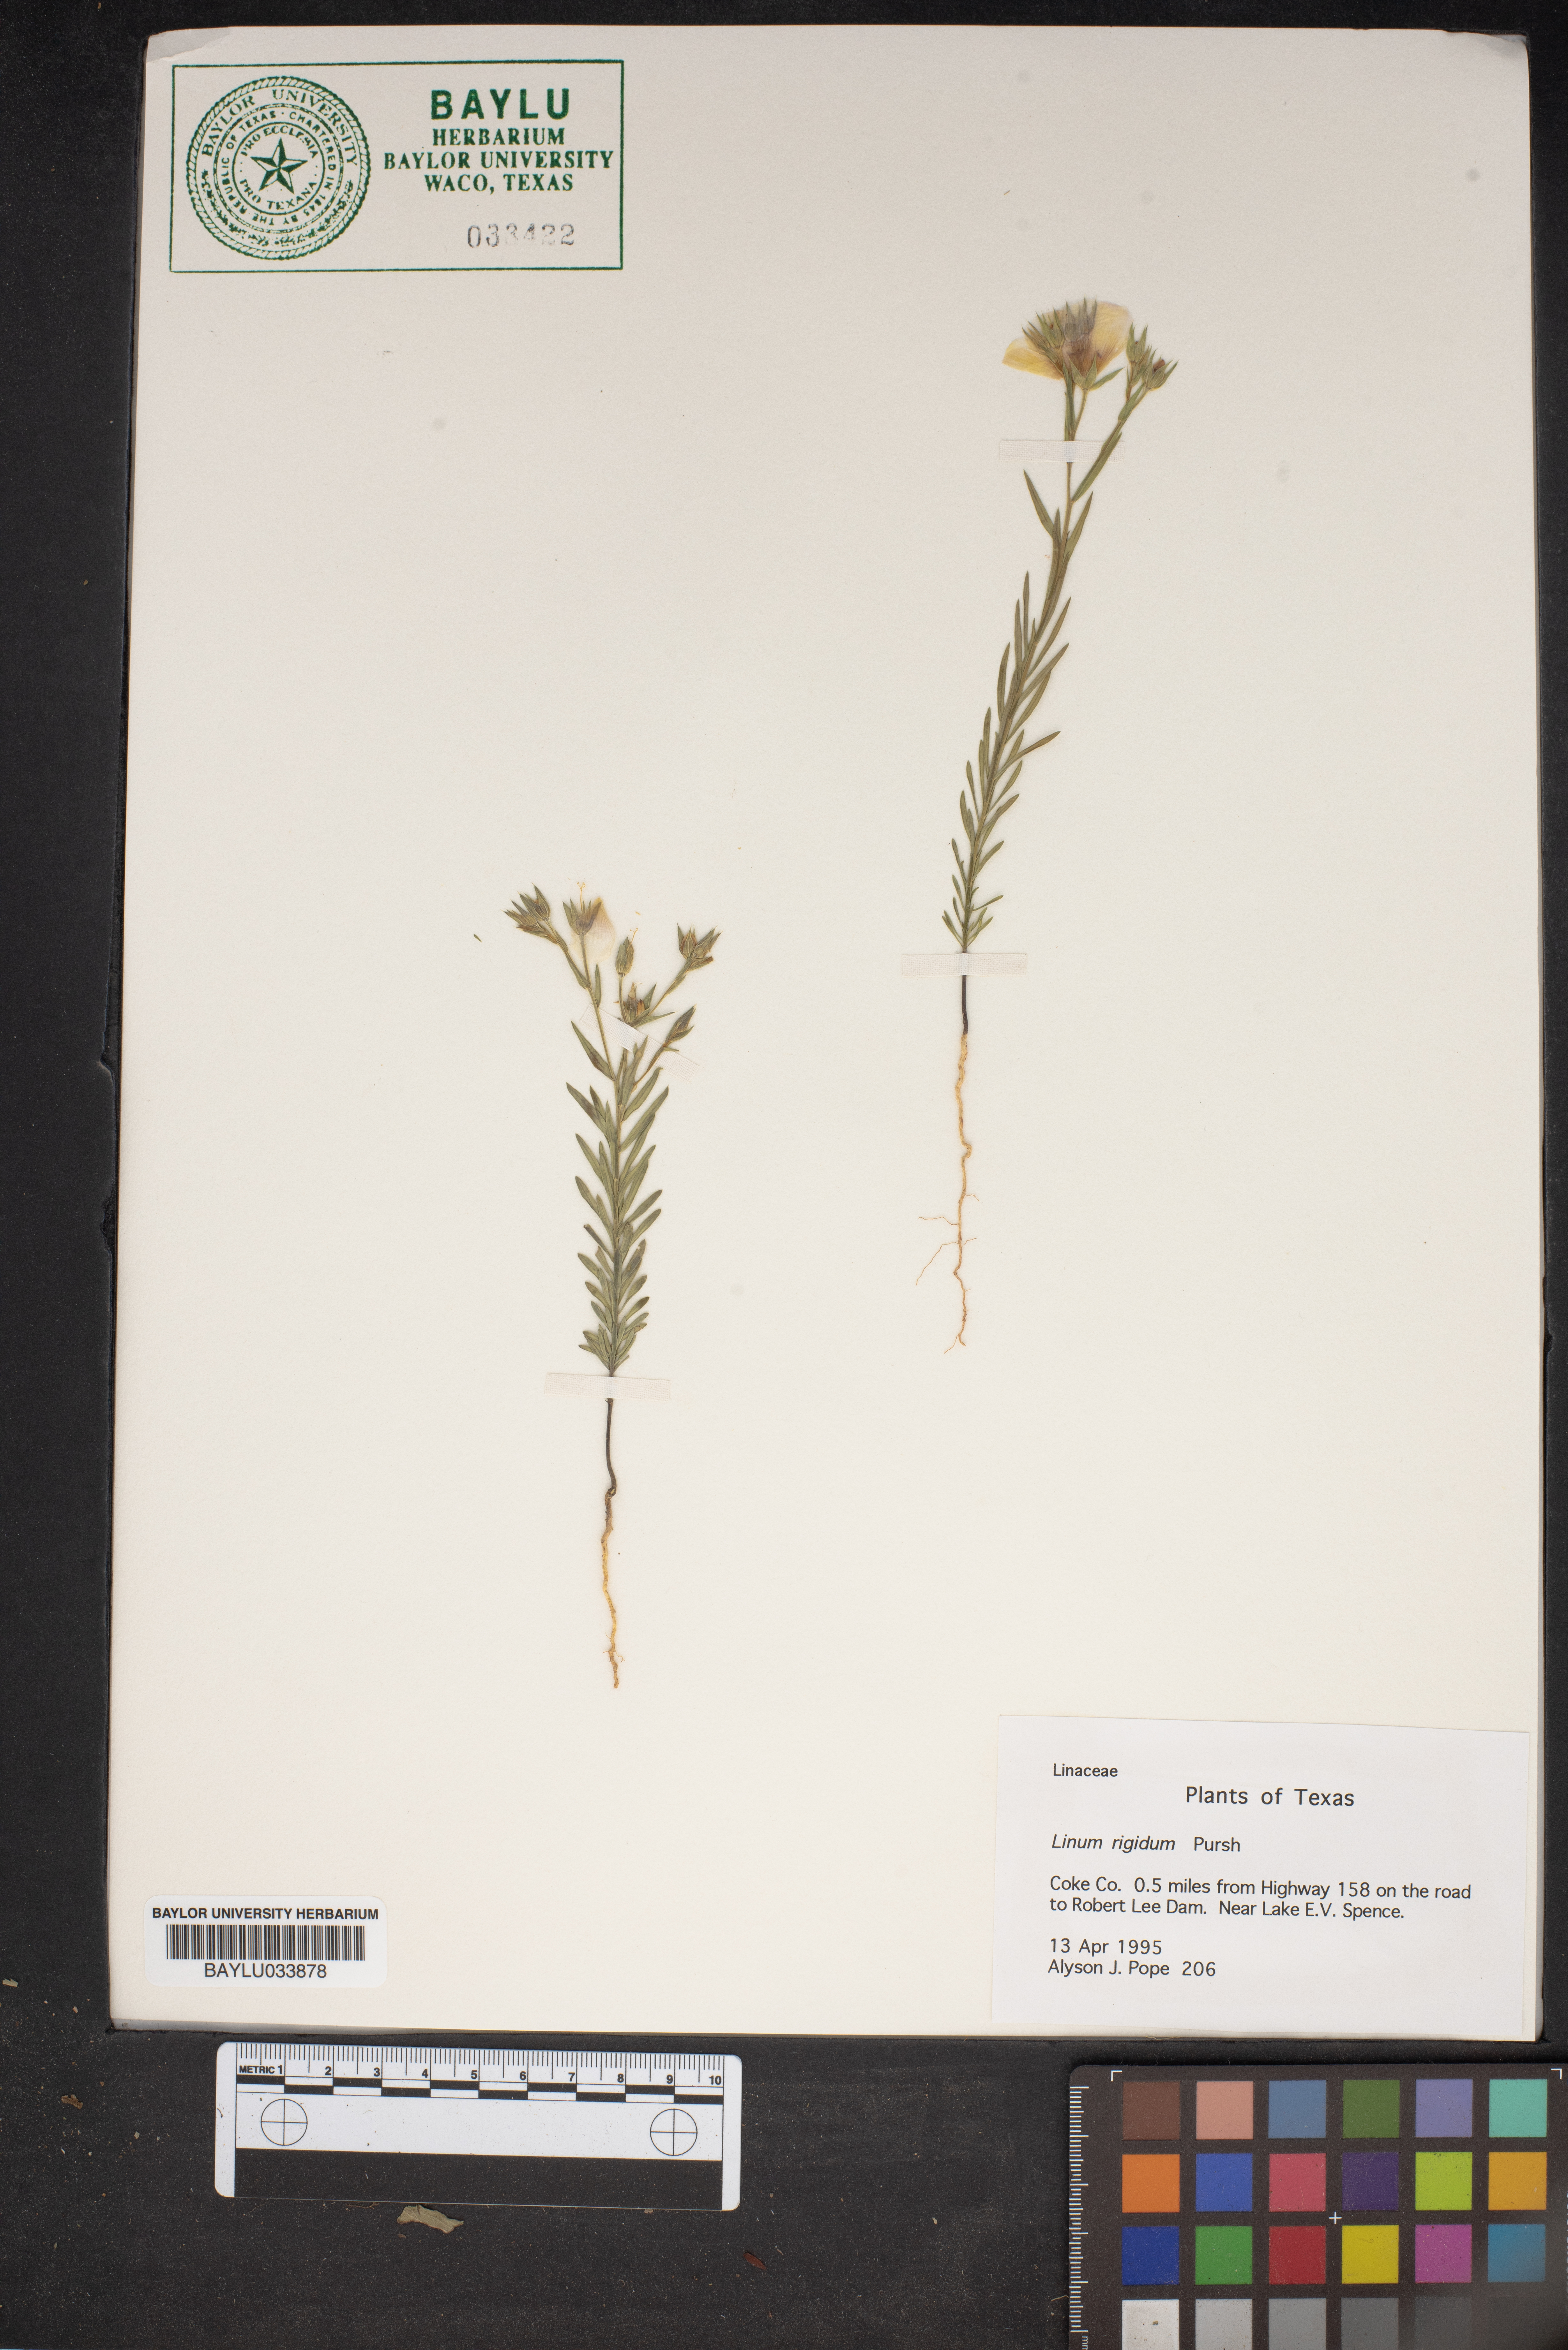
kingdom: Plantae
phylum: Tracheophyta
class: Magnoliopsida
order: Malpighiales
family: Linaceae
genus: Linum
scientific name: Linum rigidum
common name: Stiff-stem flax
